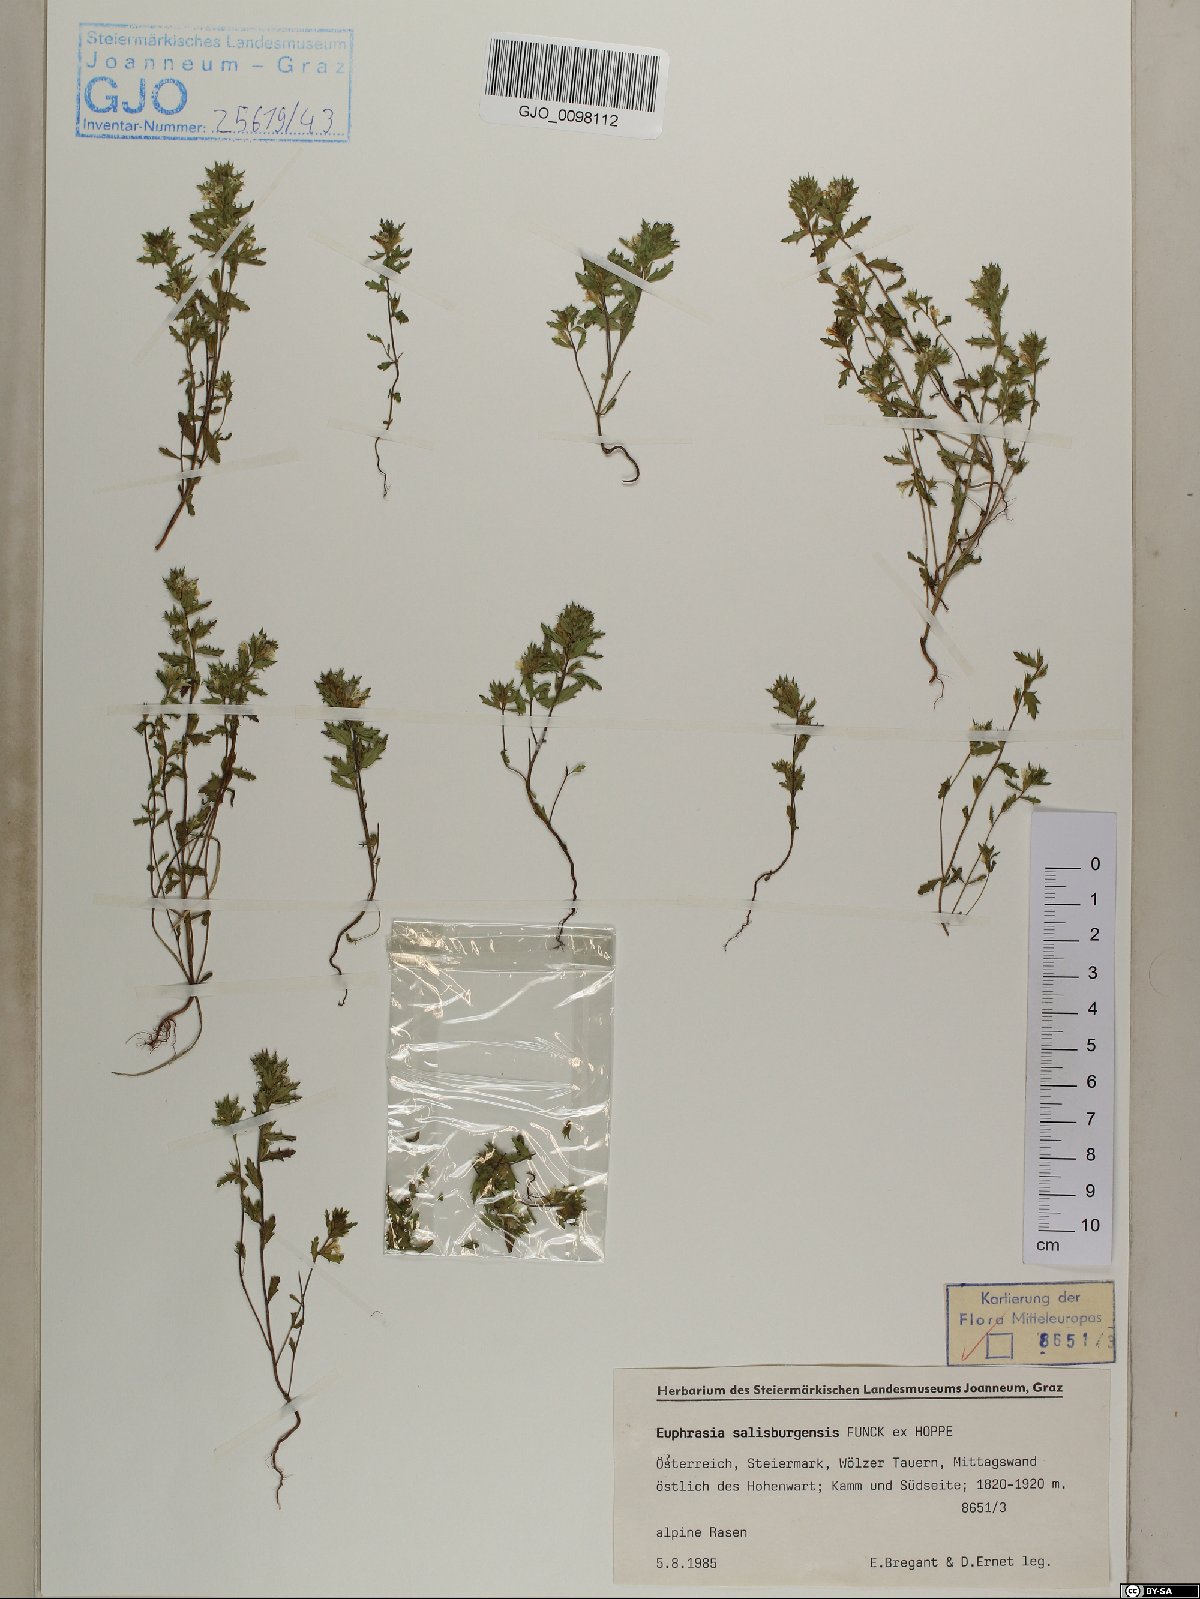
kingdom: Plantae
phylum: Tracheophyta
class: Magnoliopsida
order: Lamiales
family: Orobanchaceae
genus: Euphrasia
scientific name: Euphrasia salisburgensis
